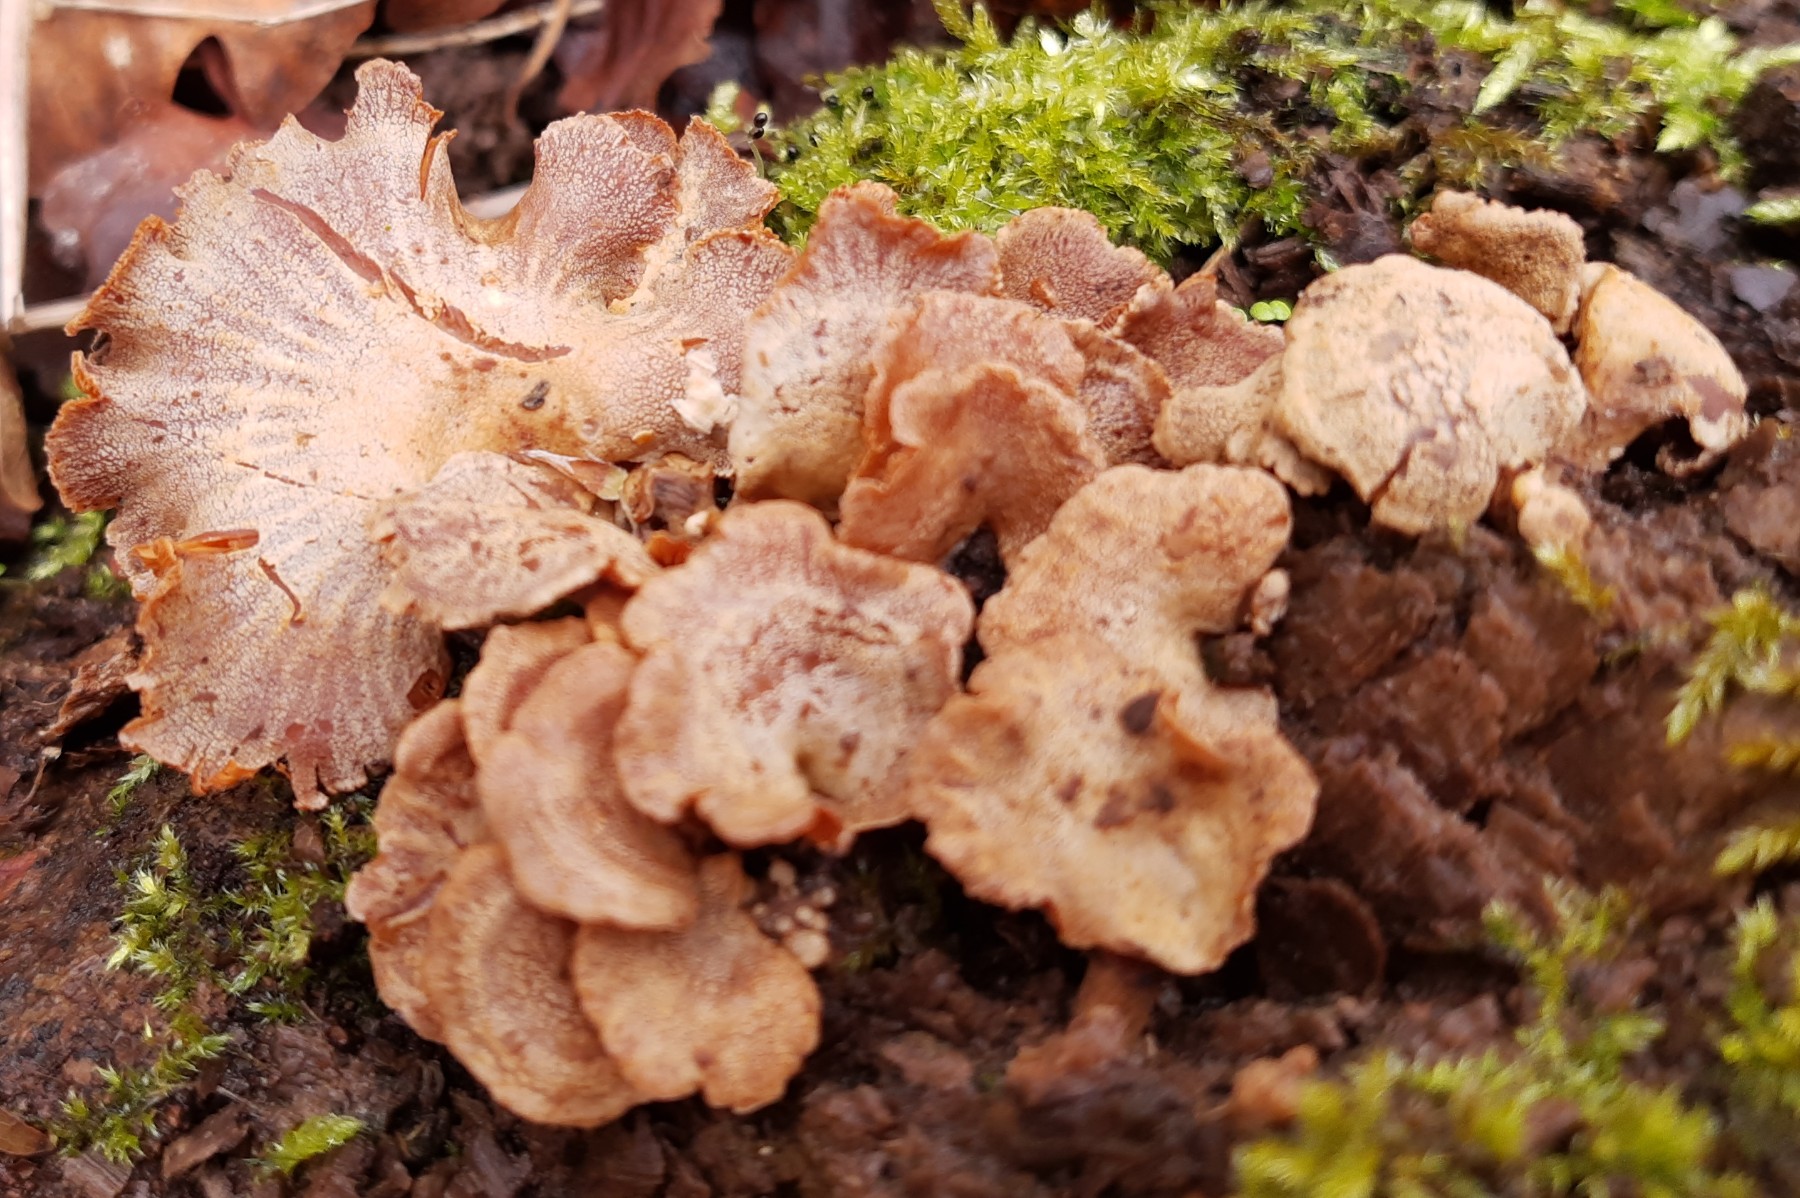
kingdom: Fungi
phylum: Basidiomycota
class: Agaricomycetes
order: Agaricales
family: Mycenaceae
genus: Panellus
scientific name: Panellus stipticus
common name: kliddet epaulethat
